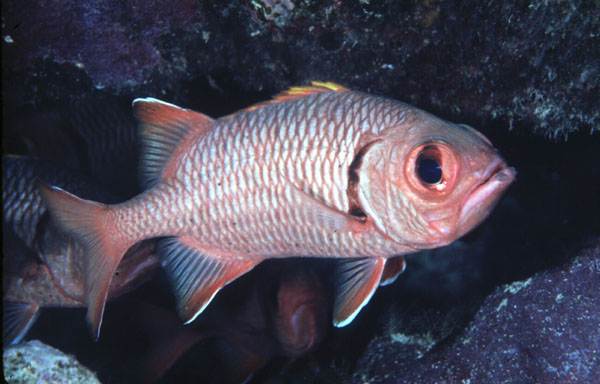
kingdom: Animalia
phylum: Chordata
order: Beryciformes
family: Holocentridae
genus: Myripristis
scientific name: Myripristis berndti
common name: Bigscale soldierfish
